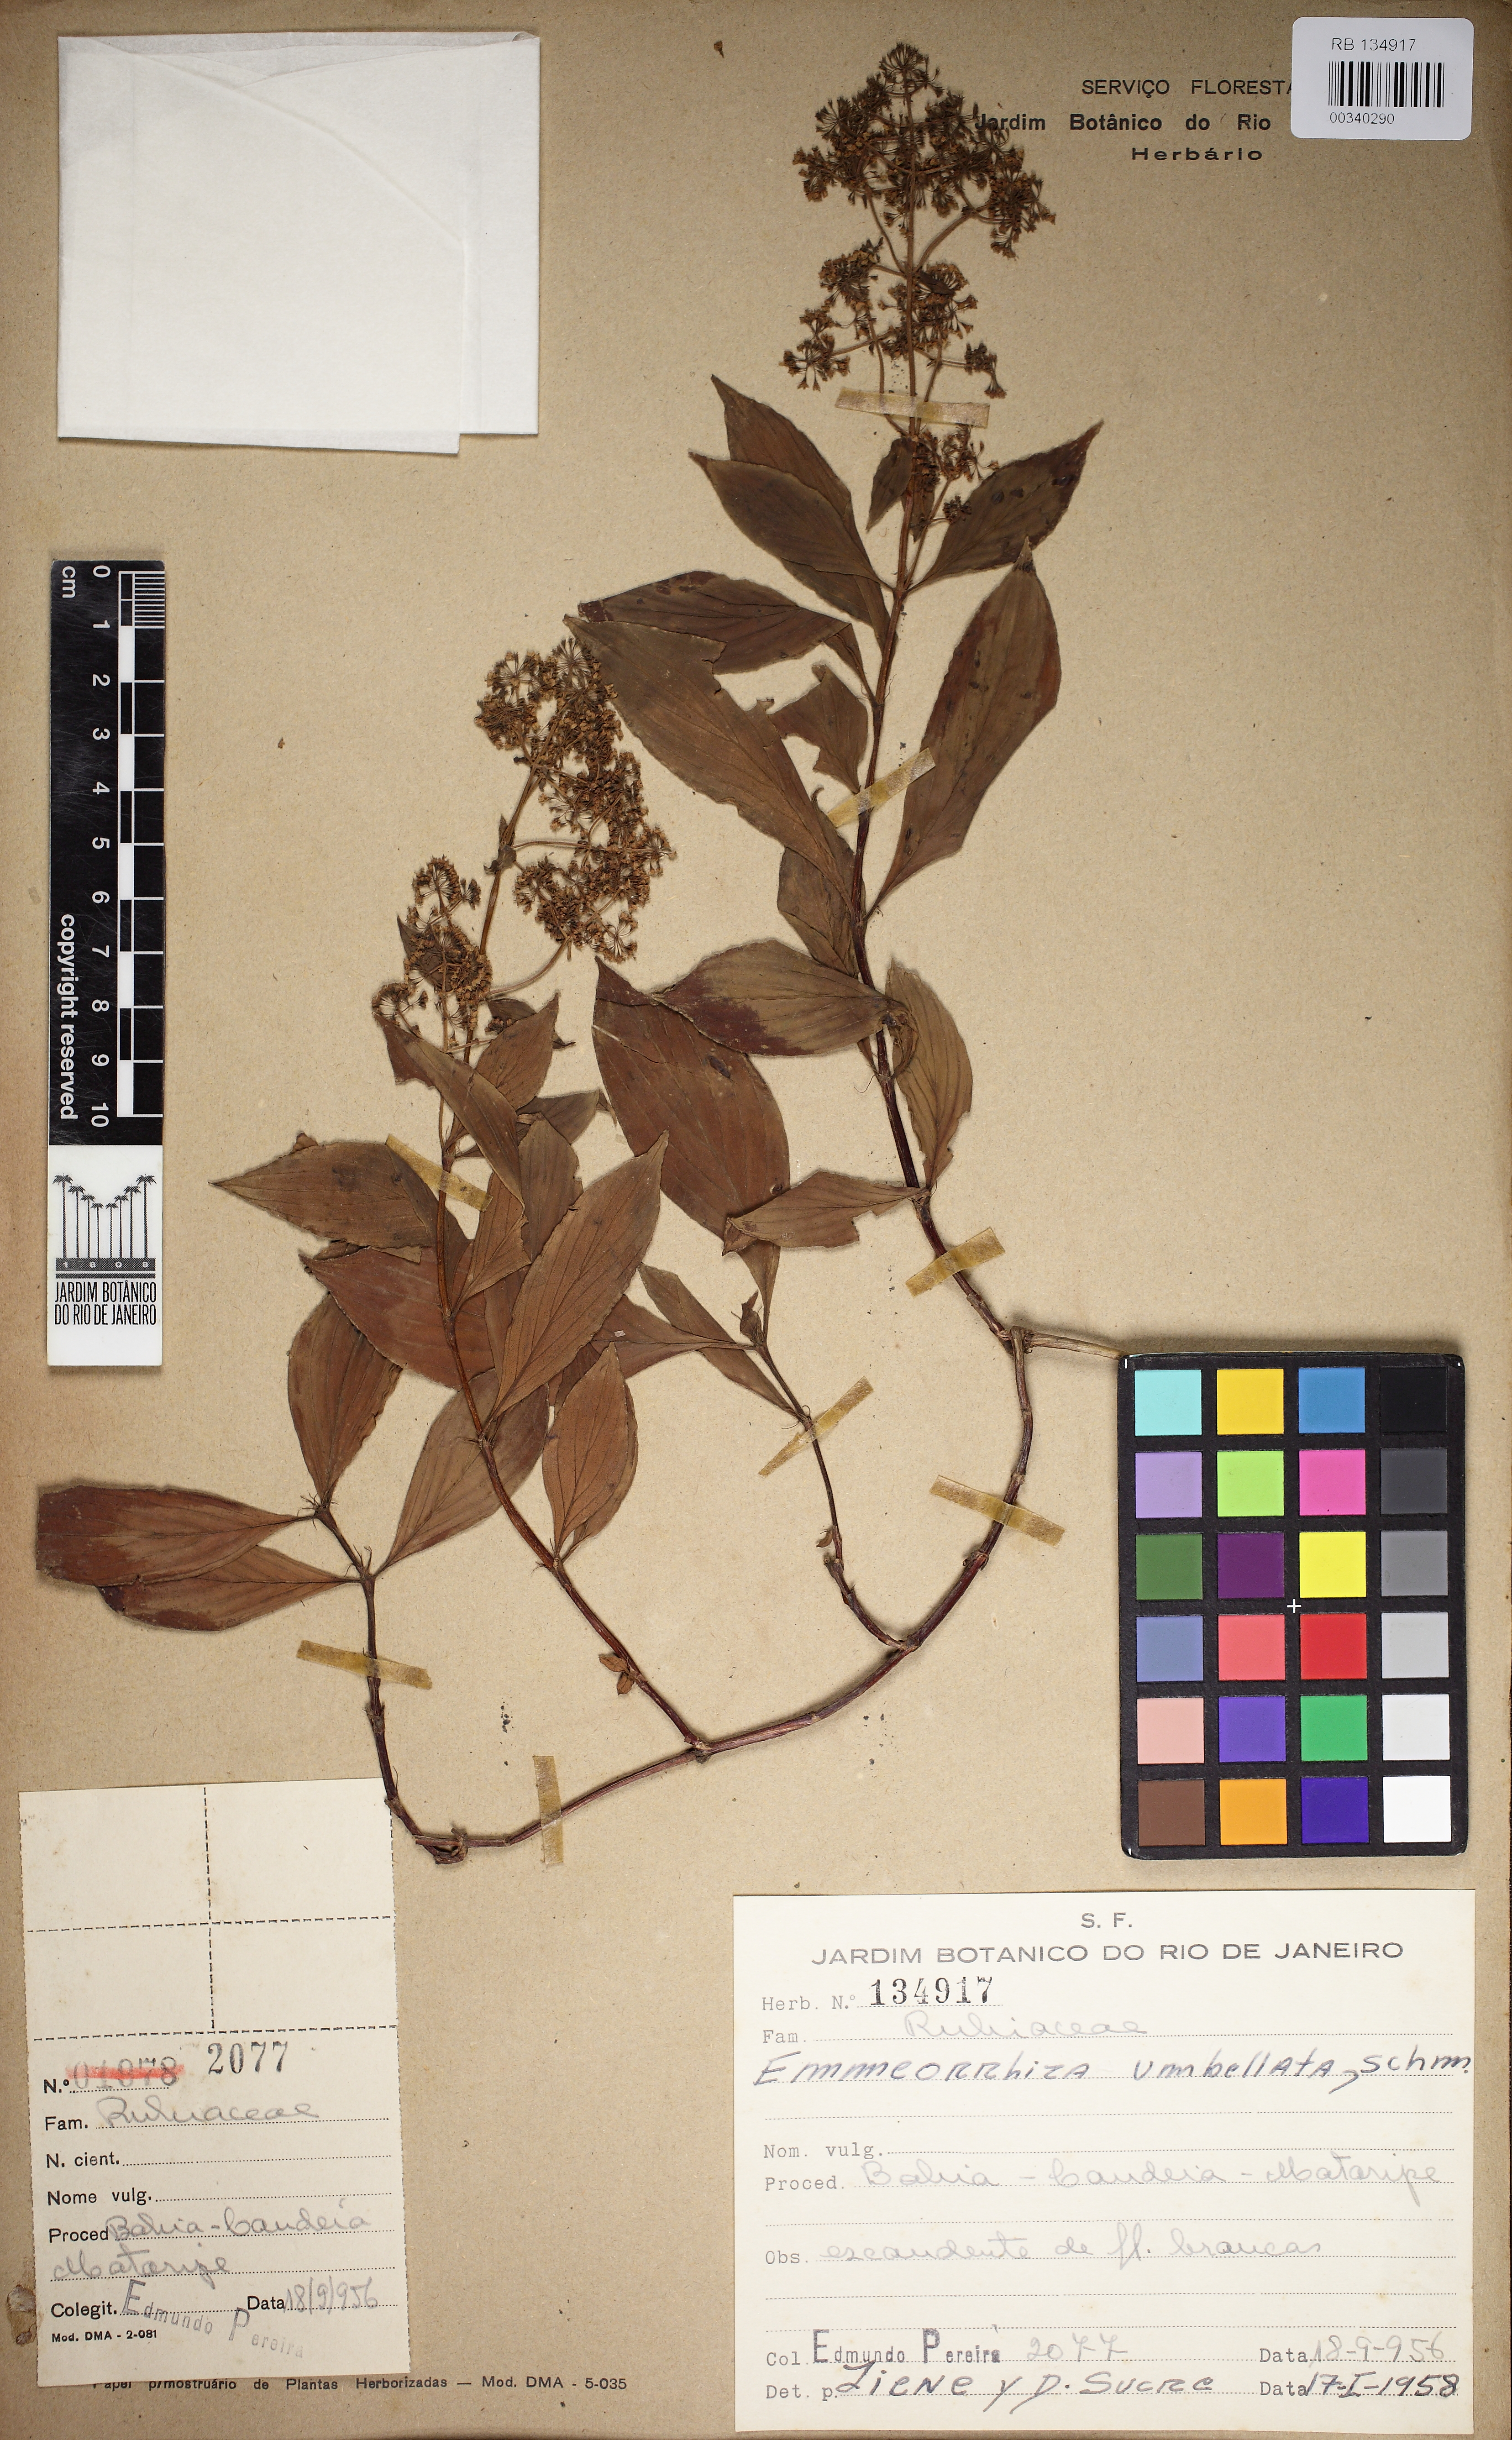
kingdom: Plantae
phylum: Tracheophyta
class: Magnoliopsida
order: Gentianales
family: Rubiaceae
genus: Emmeorhiza
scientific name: Emmeorhiza umbellata
